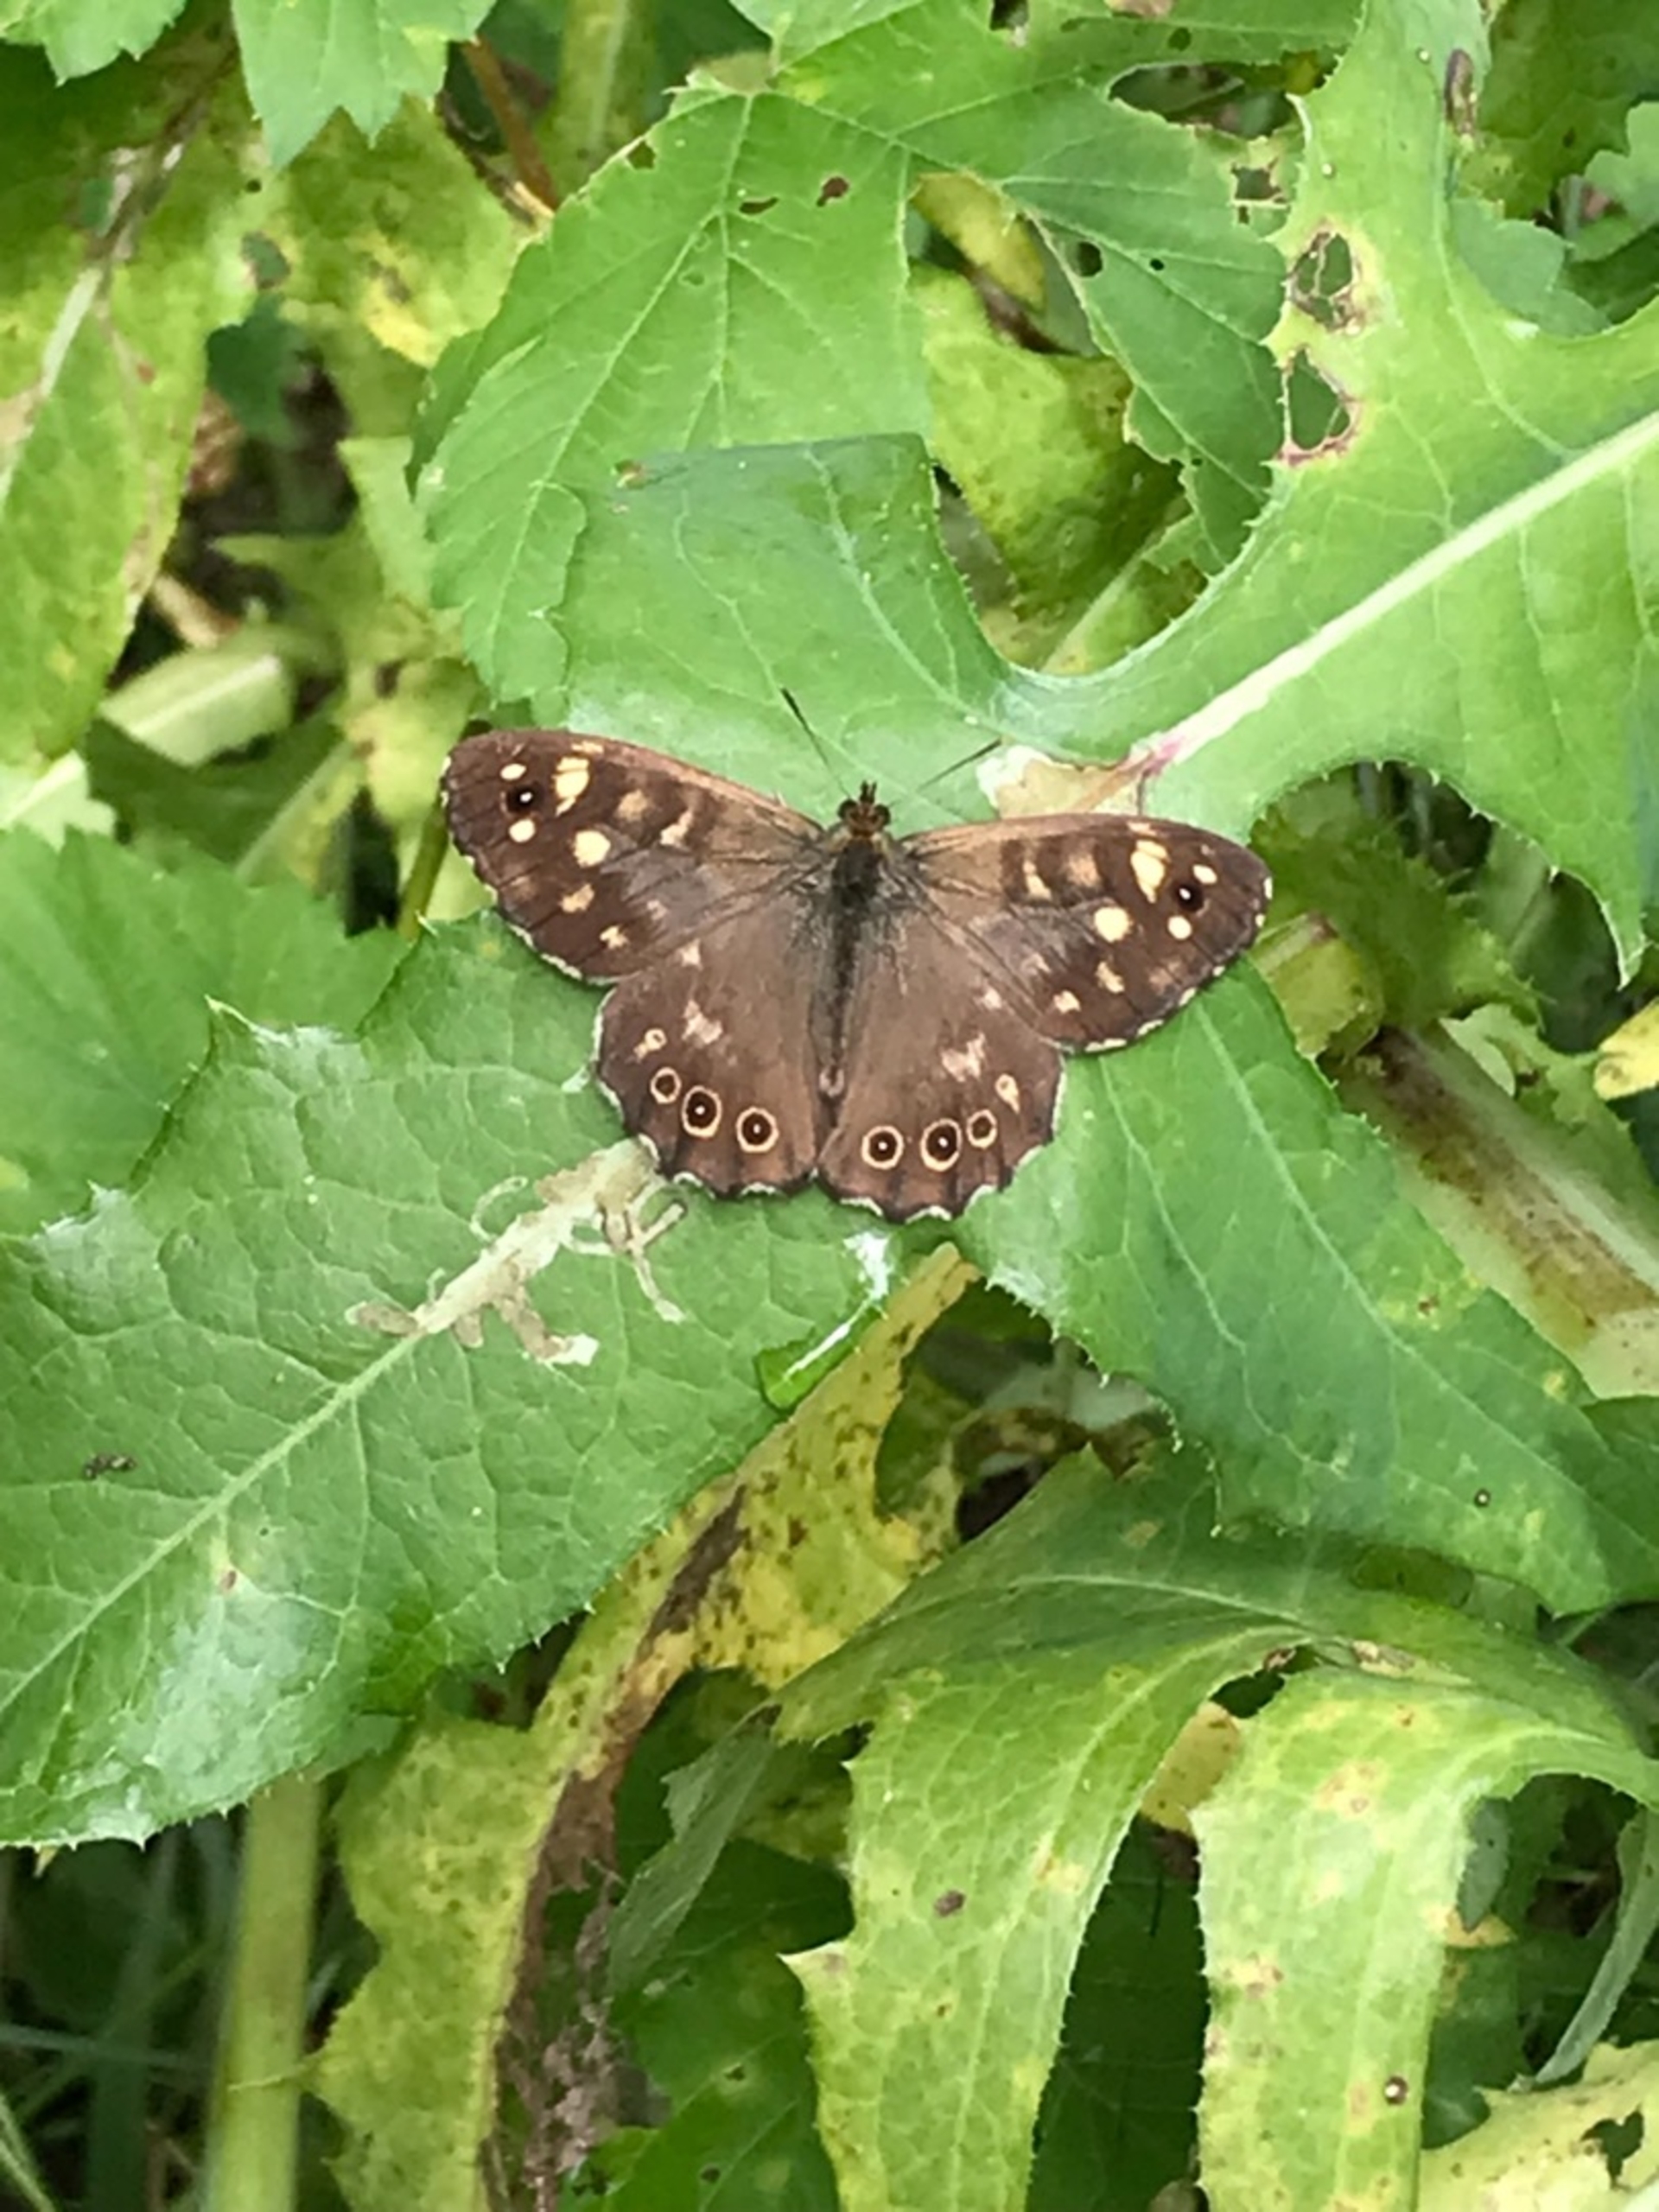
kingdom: Animalia
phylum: Arthropoda
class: Insecta
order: Lepidoptera
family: Nymphalidae
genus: Pararge
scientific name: Pararge aegeria
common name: Skovrandøje
